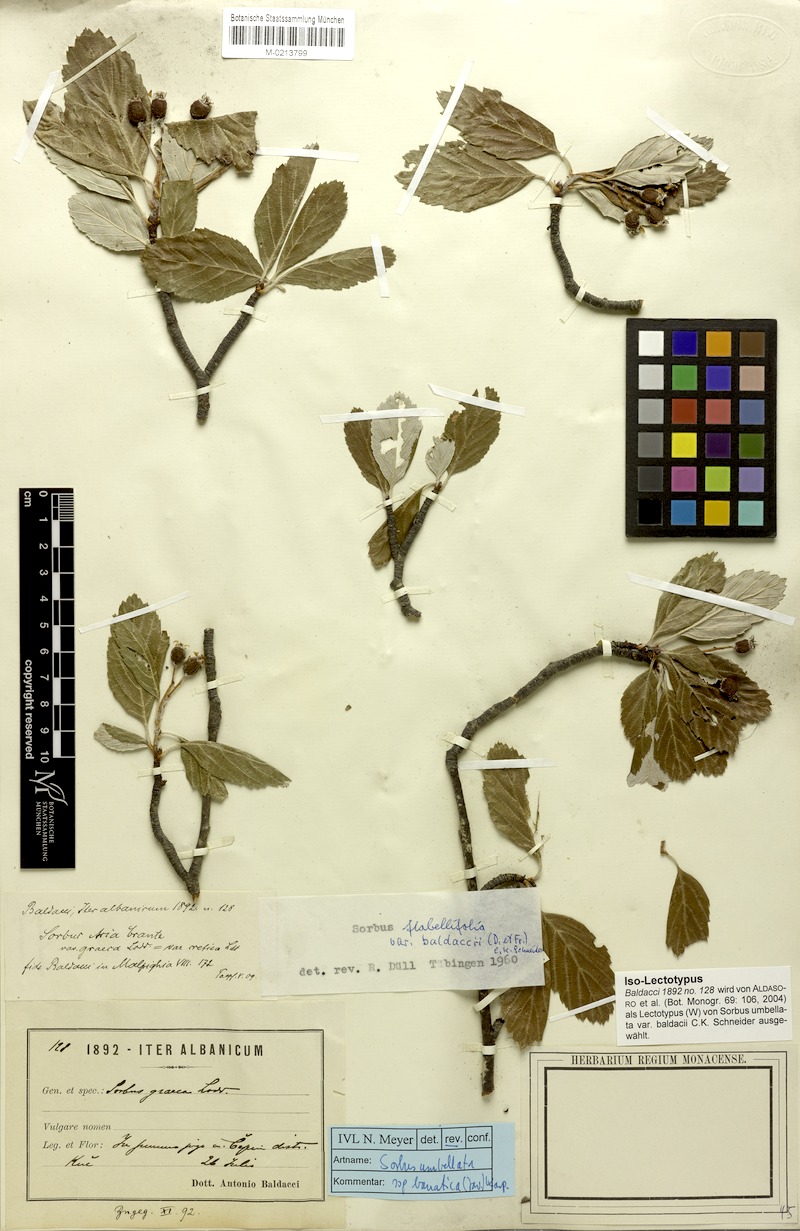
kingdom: Plantae
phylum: Tracheophyta
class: Magnoliopsida
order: Rosales
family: Rosaceae
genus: Aria
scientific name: Aria baldaccii
